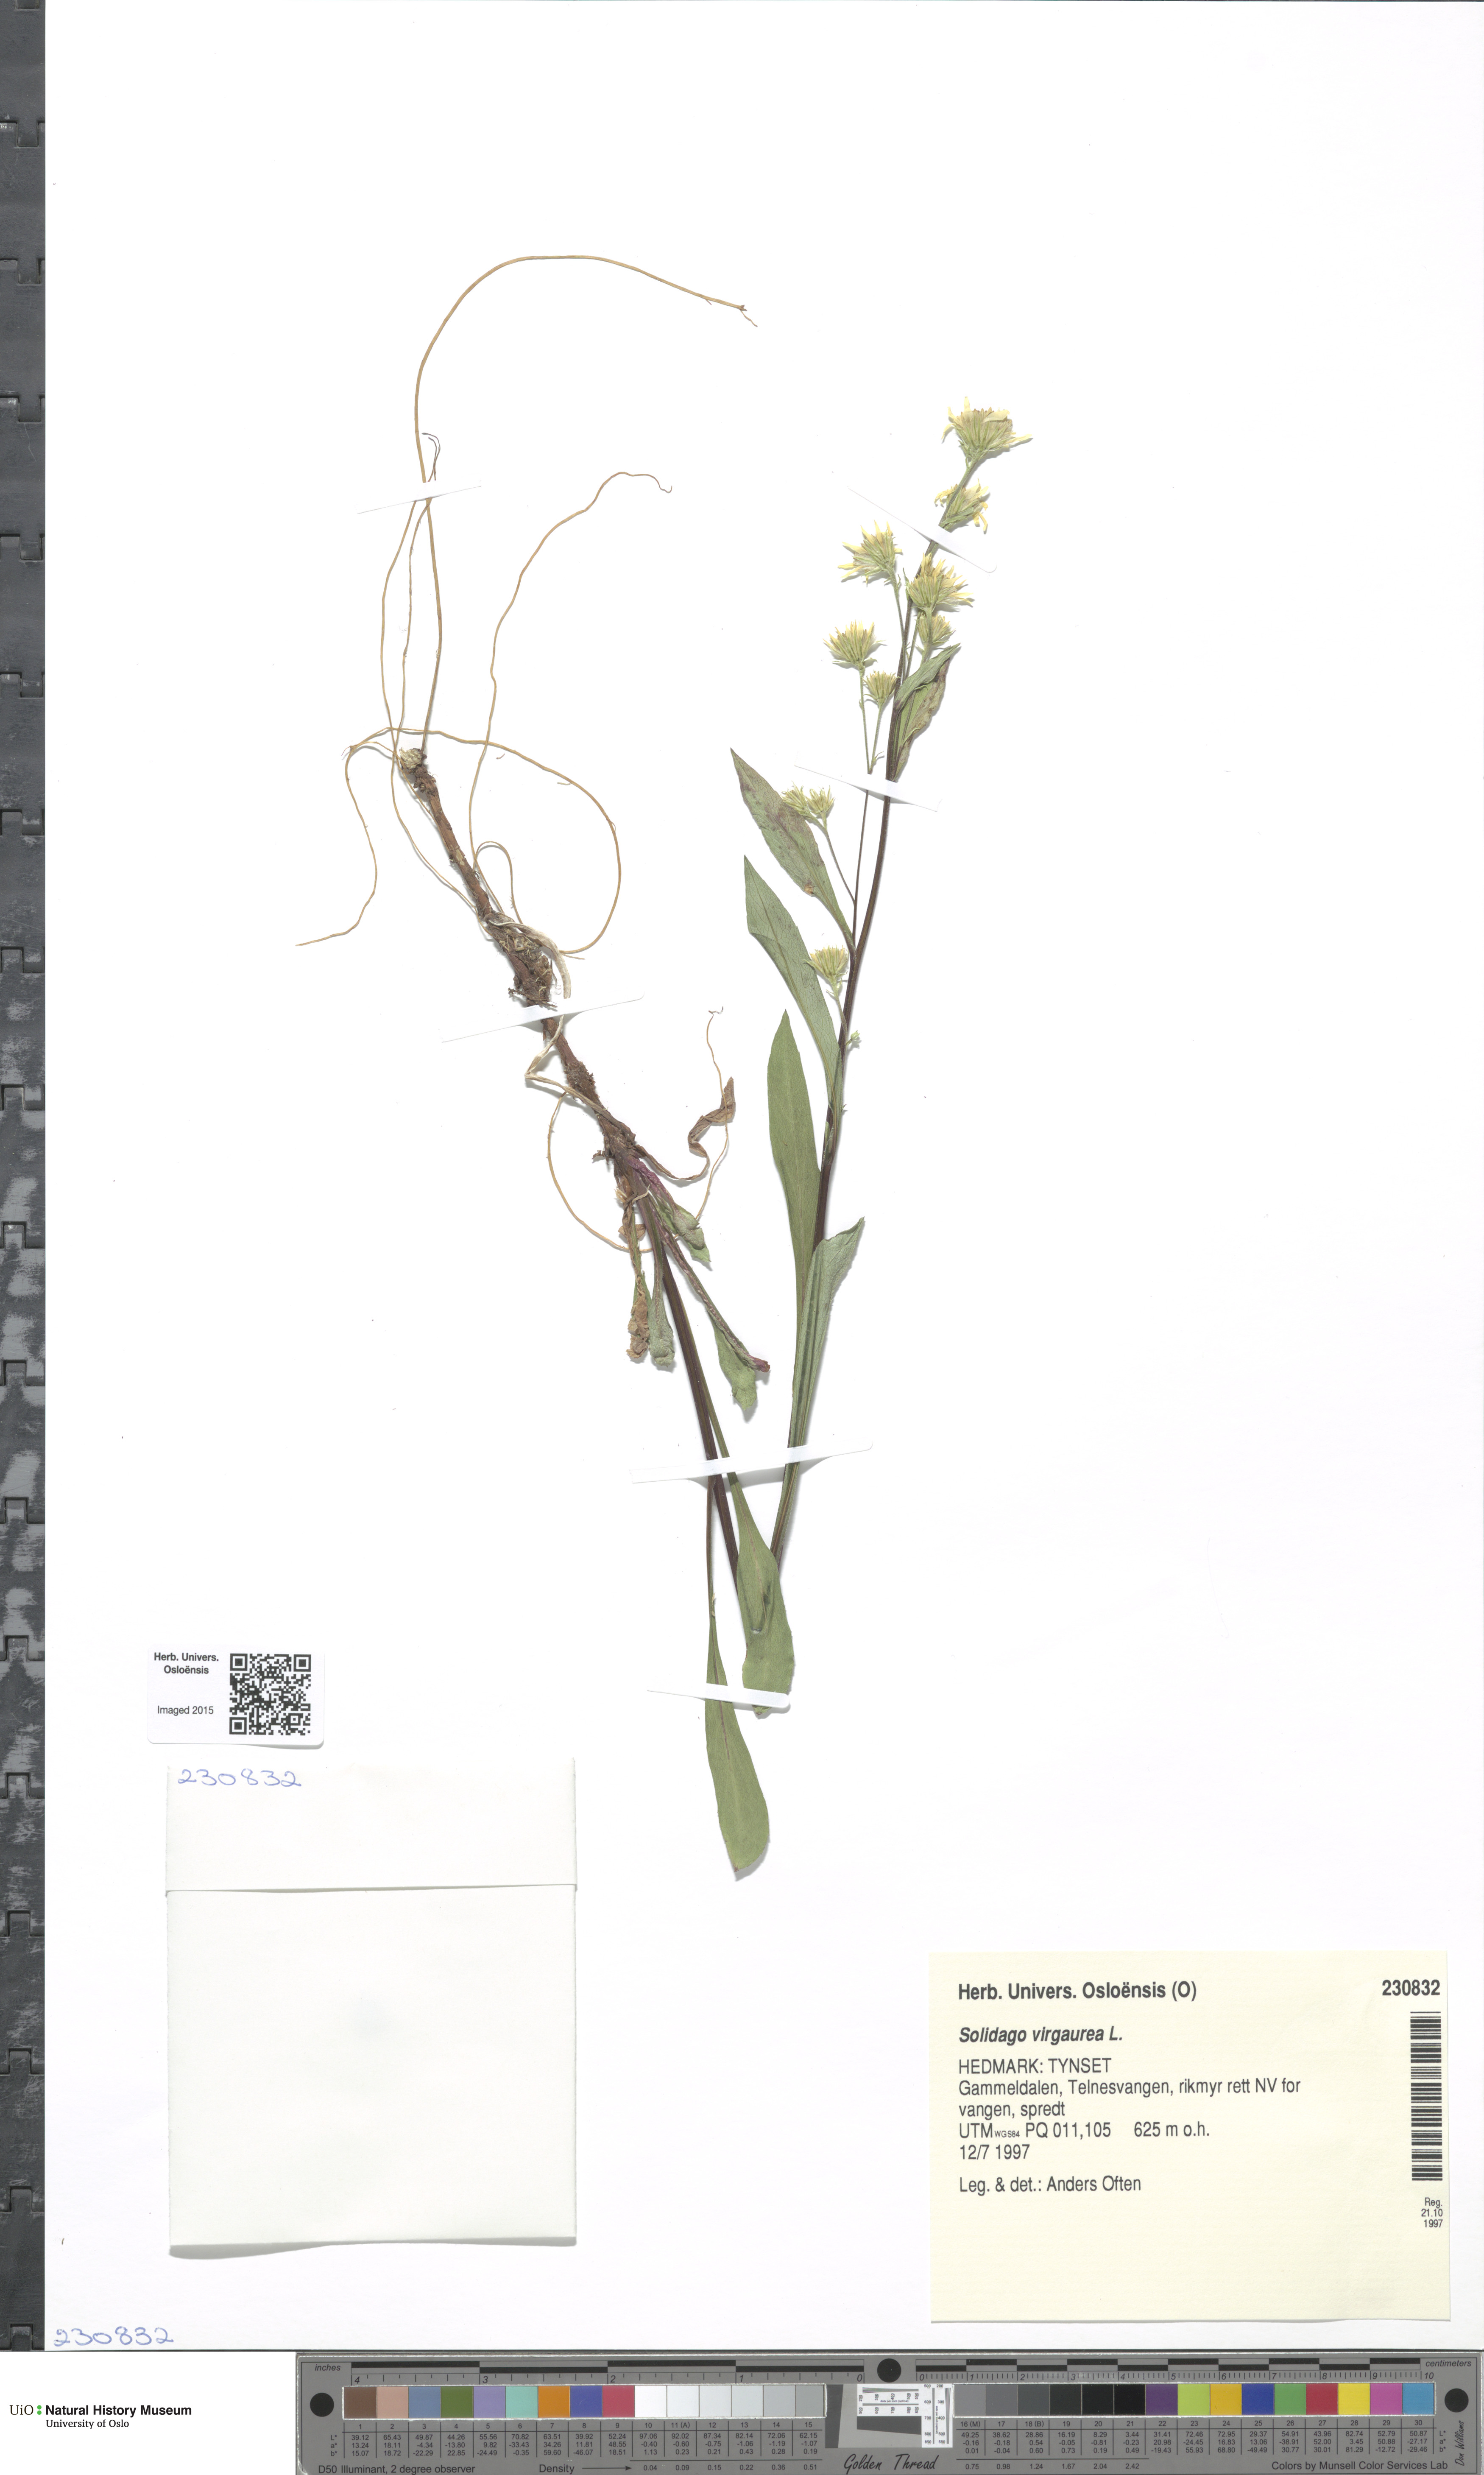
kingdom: Plantae
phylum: Tracheophyta
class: Magnoliopsida
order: Asterales
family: Asteraceae
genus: Solidago
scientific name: Solidago virgaurea
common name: Goldenrod
